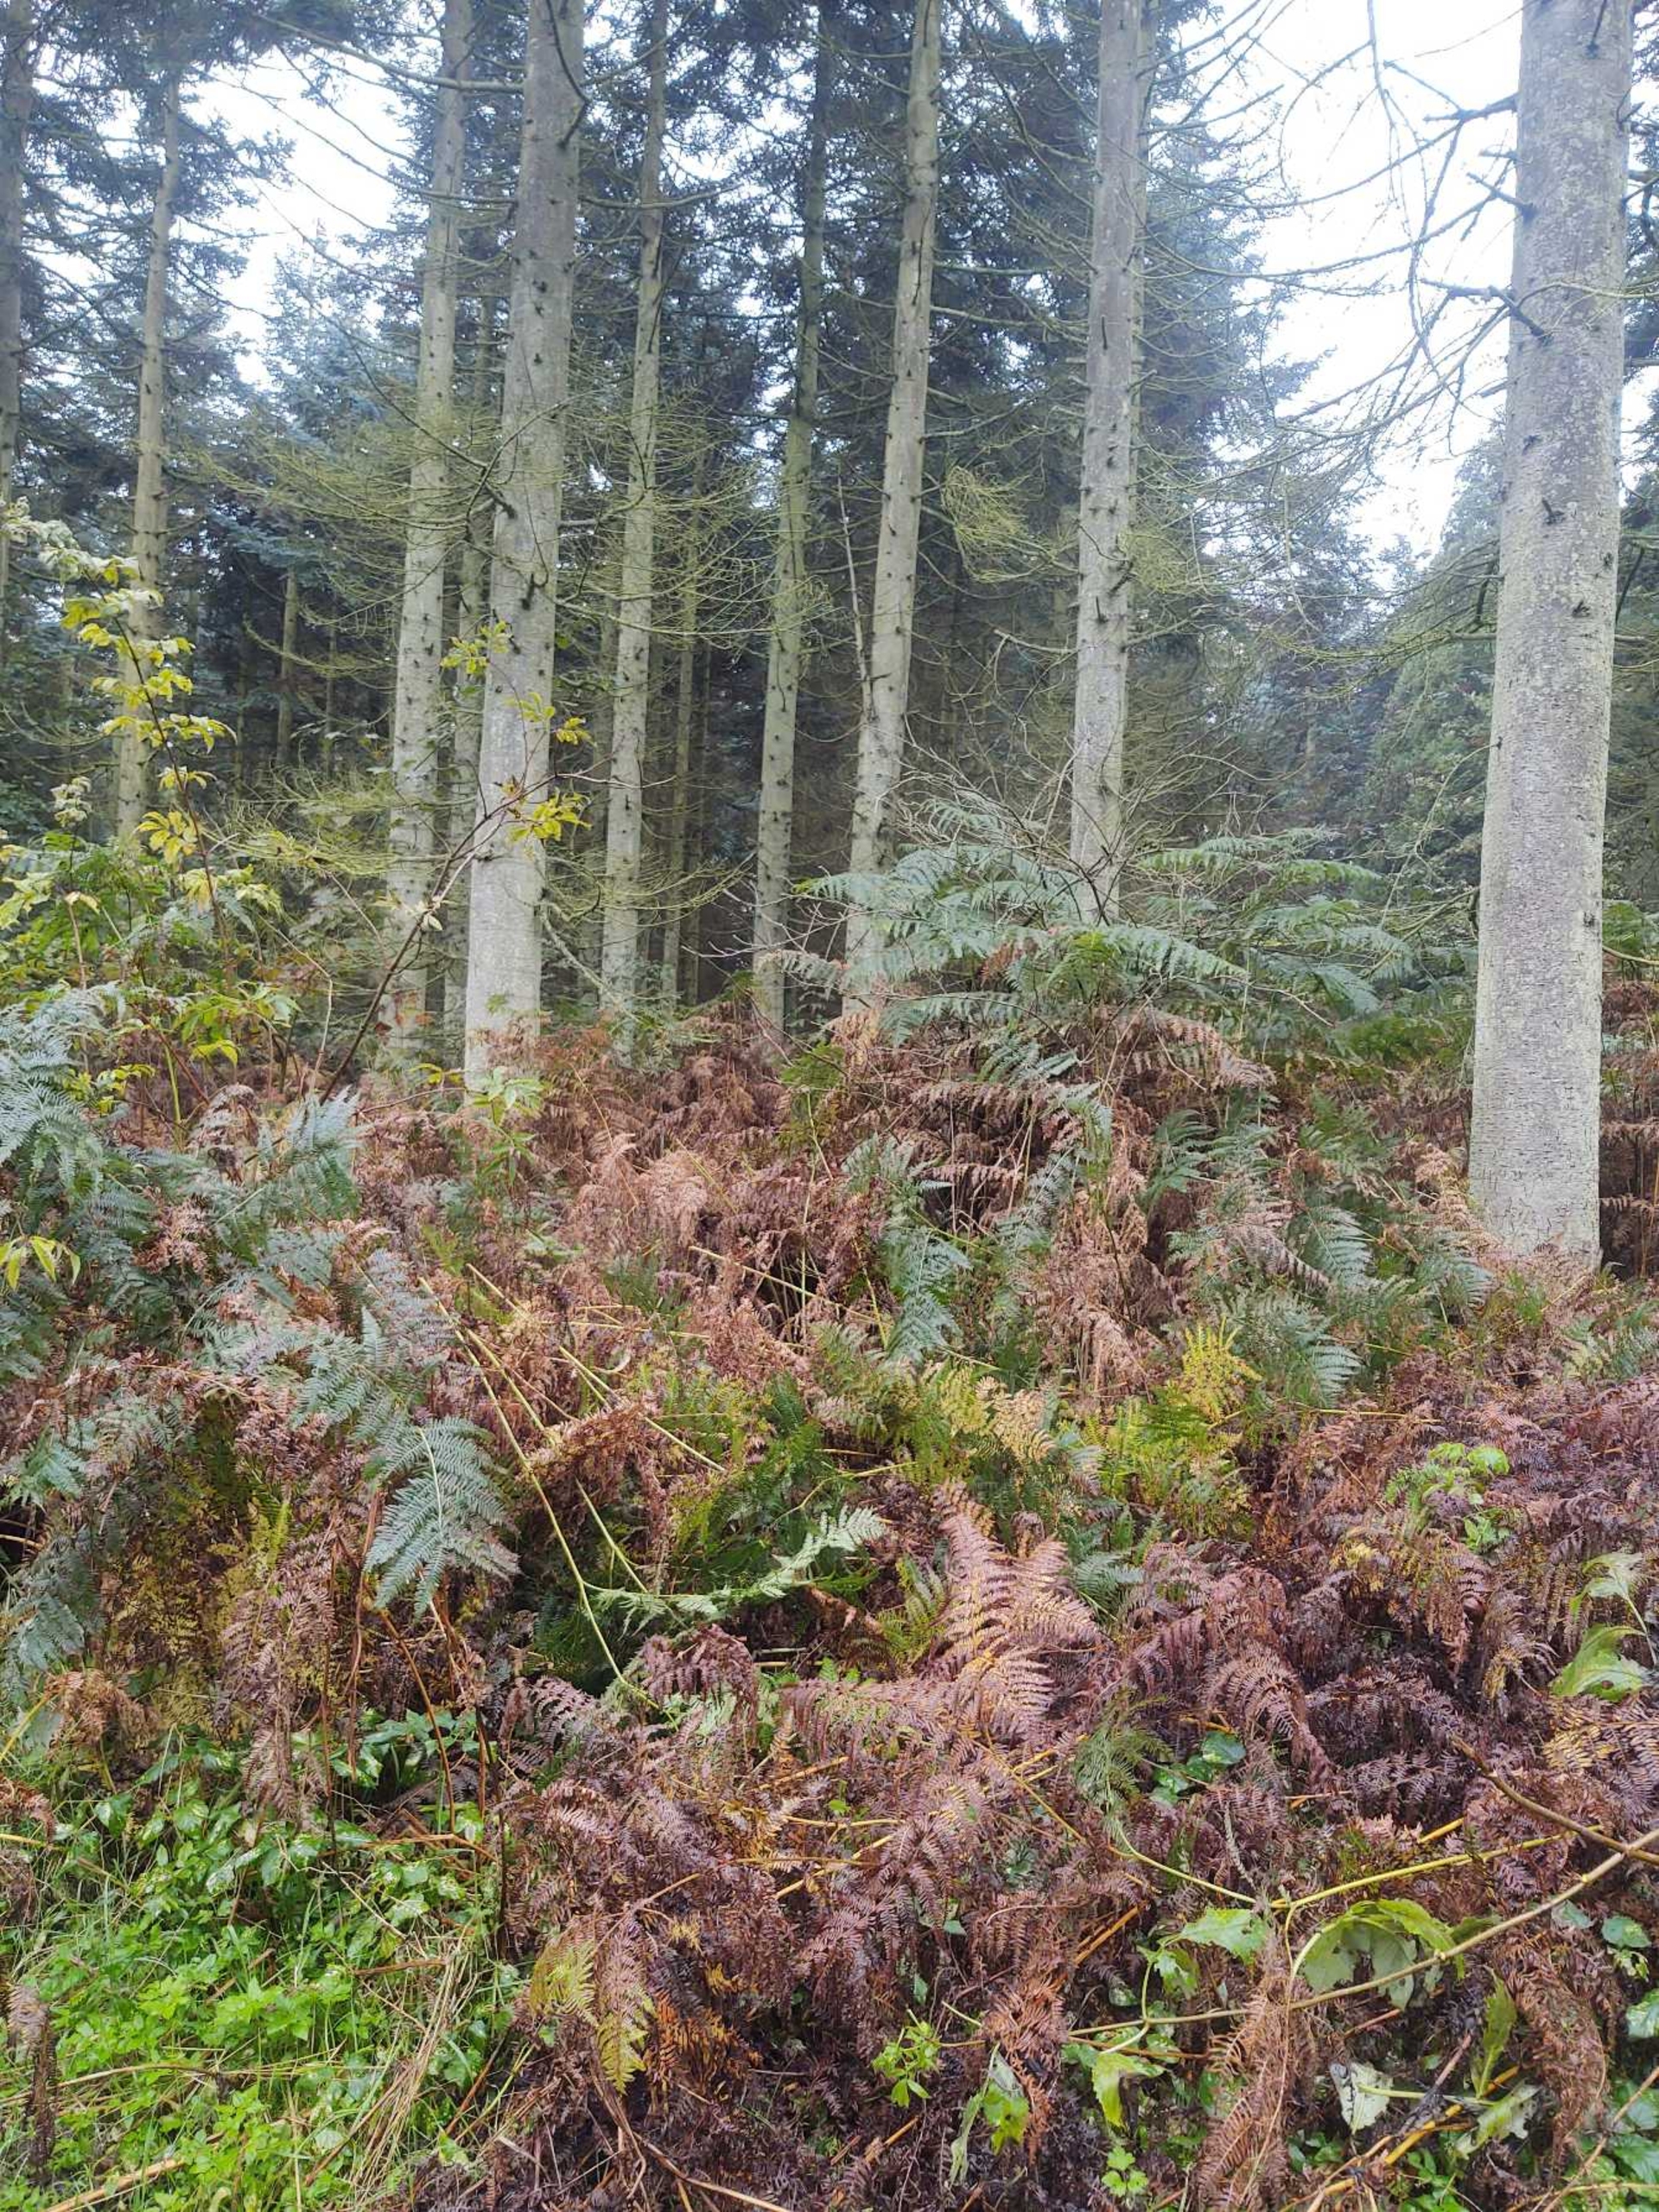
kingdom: Plantae
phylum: Tracheophyta
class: Polypodiopsida
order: Polypodiales
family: Dennstaedtiaceae
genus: Pteridium
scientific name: Pteridium aquilinum
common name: Ørnebregne
